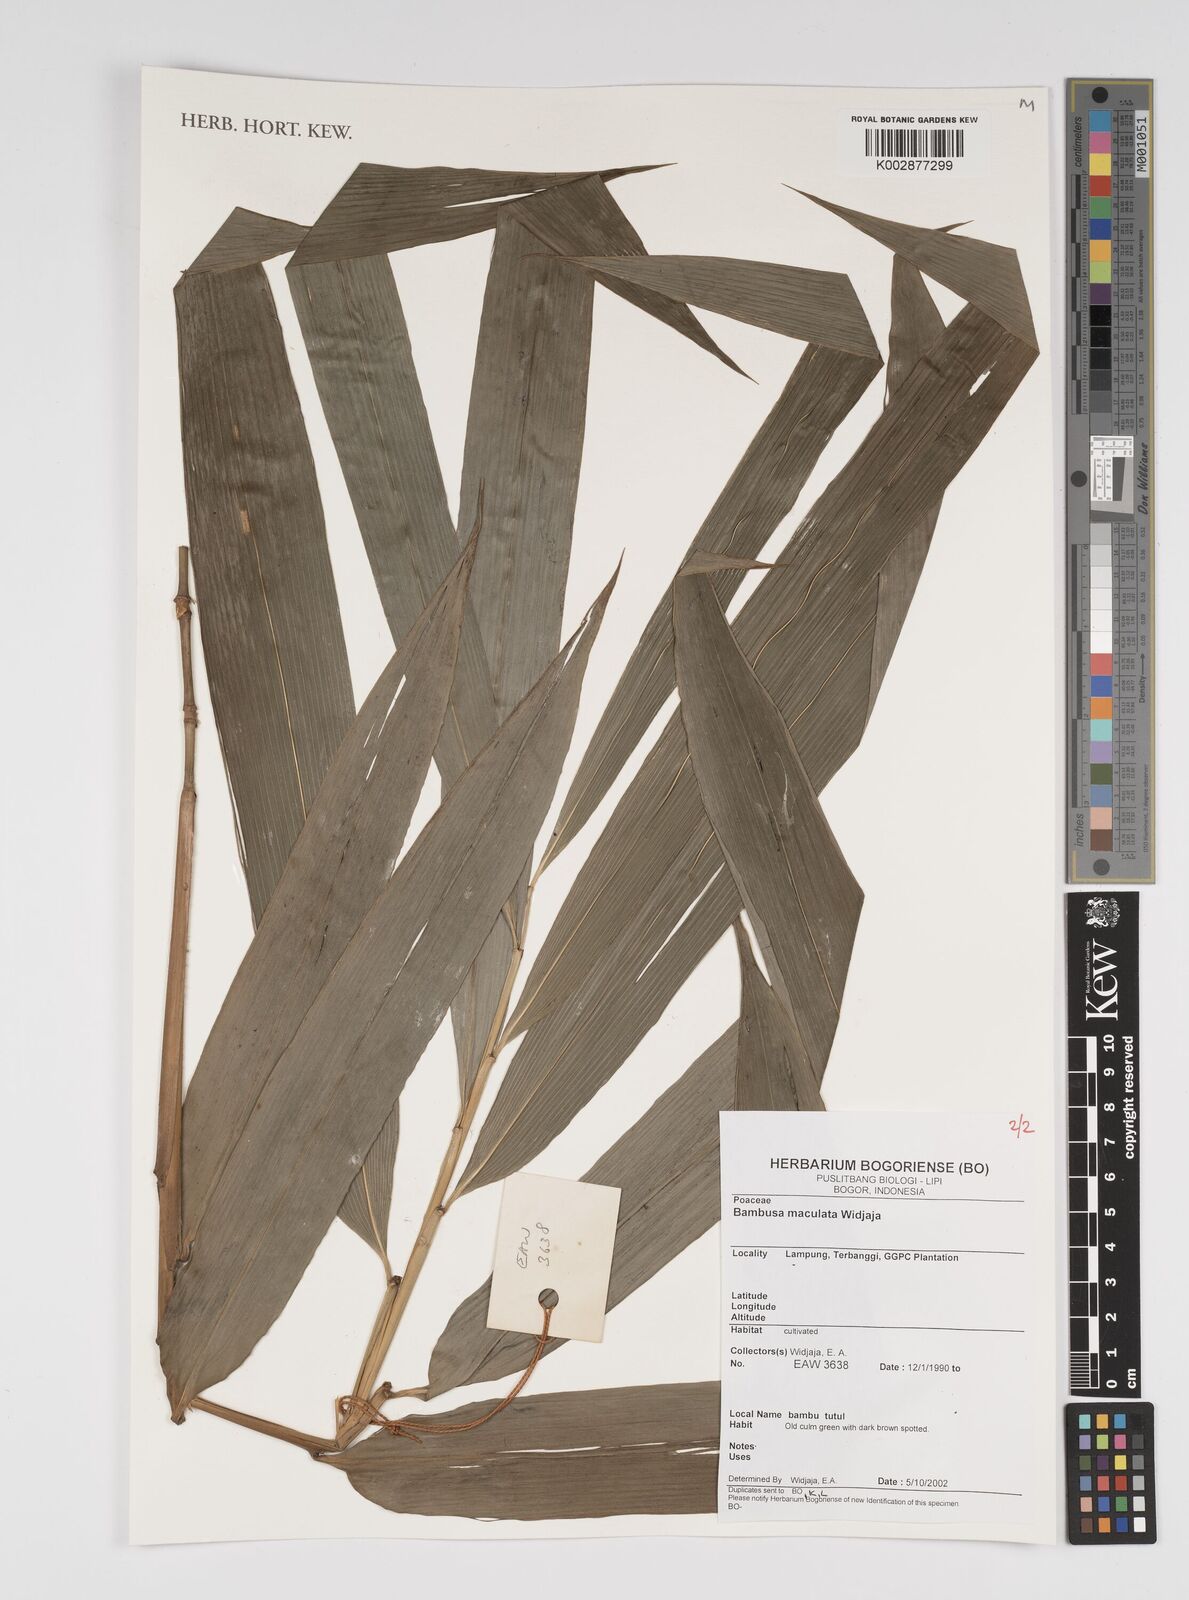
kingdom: Plantae
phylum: Tracheophyta
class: Liliopsida
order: Poales
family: Poaceae
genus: Bambusa
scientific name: Bambusa maculata
